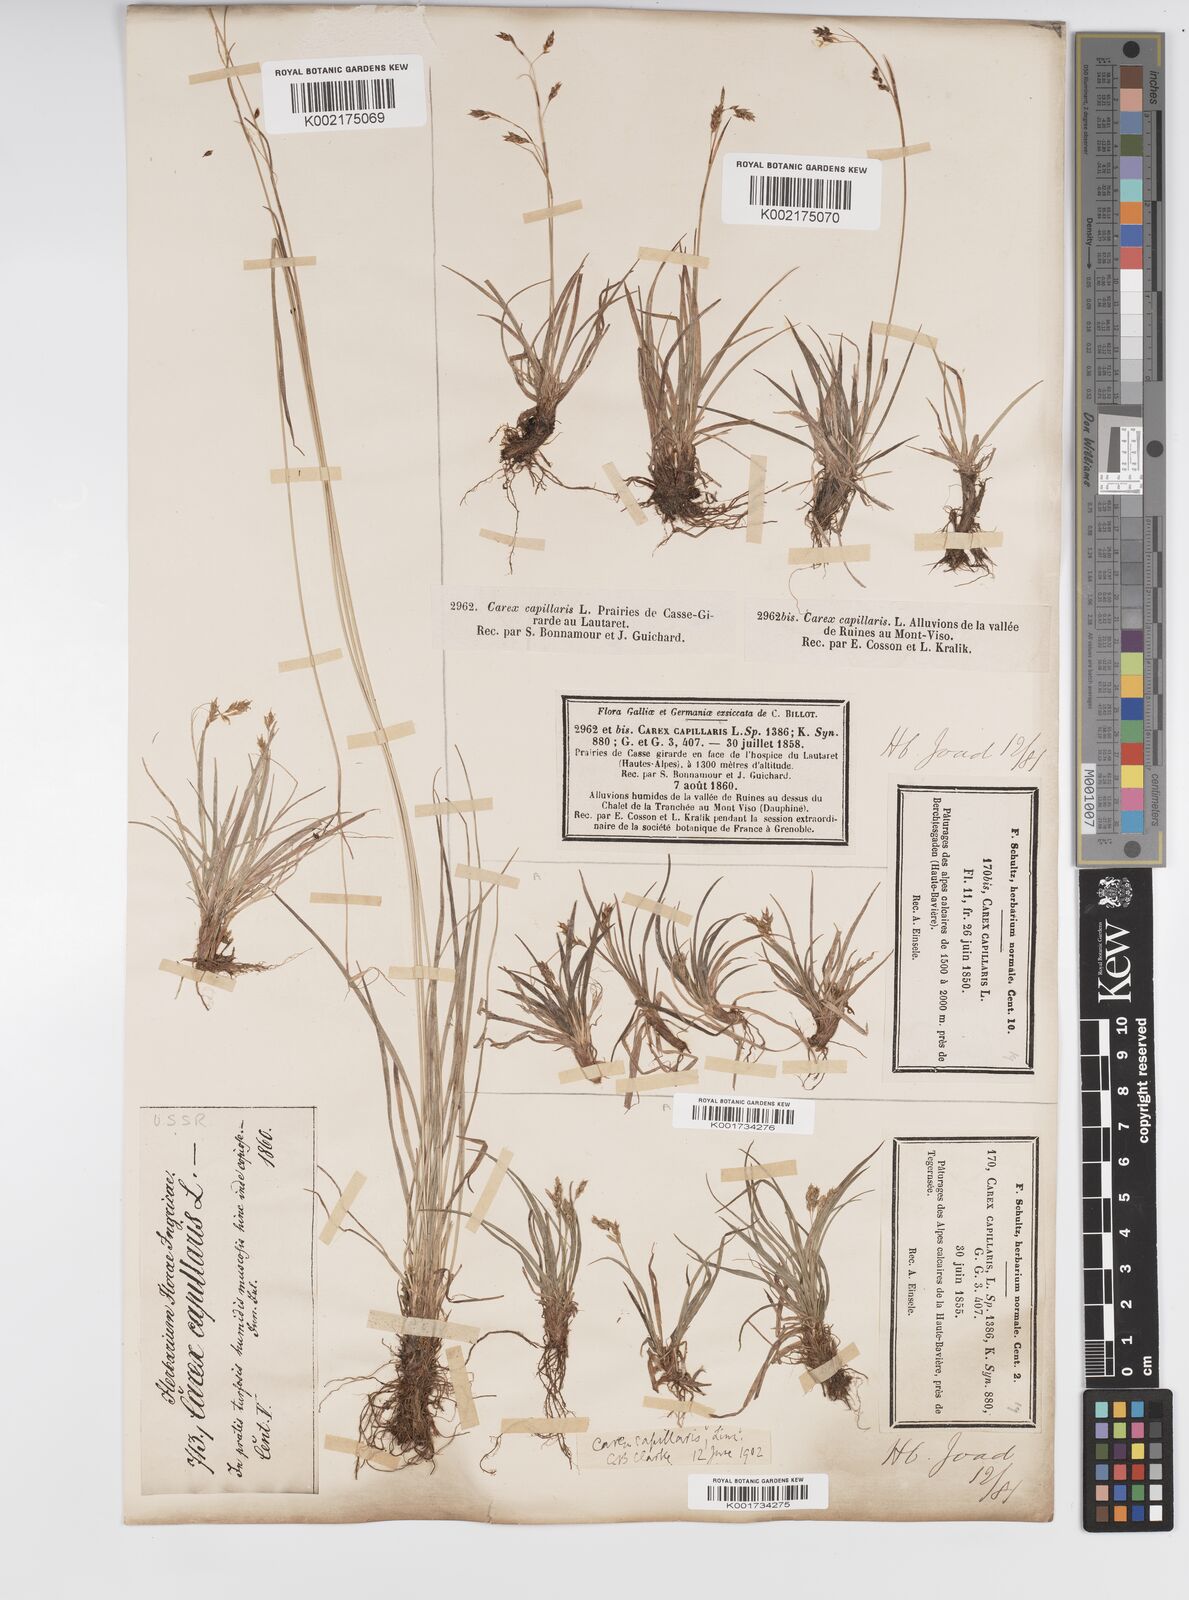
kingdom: Plantae
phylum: Tracheophyta
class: Liliopsida
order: Poales
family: Cyperaceae
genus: Carex
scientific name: Carex capillaris
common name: Hair sedge
